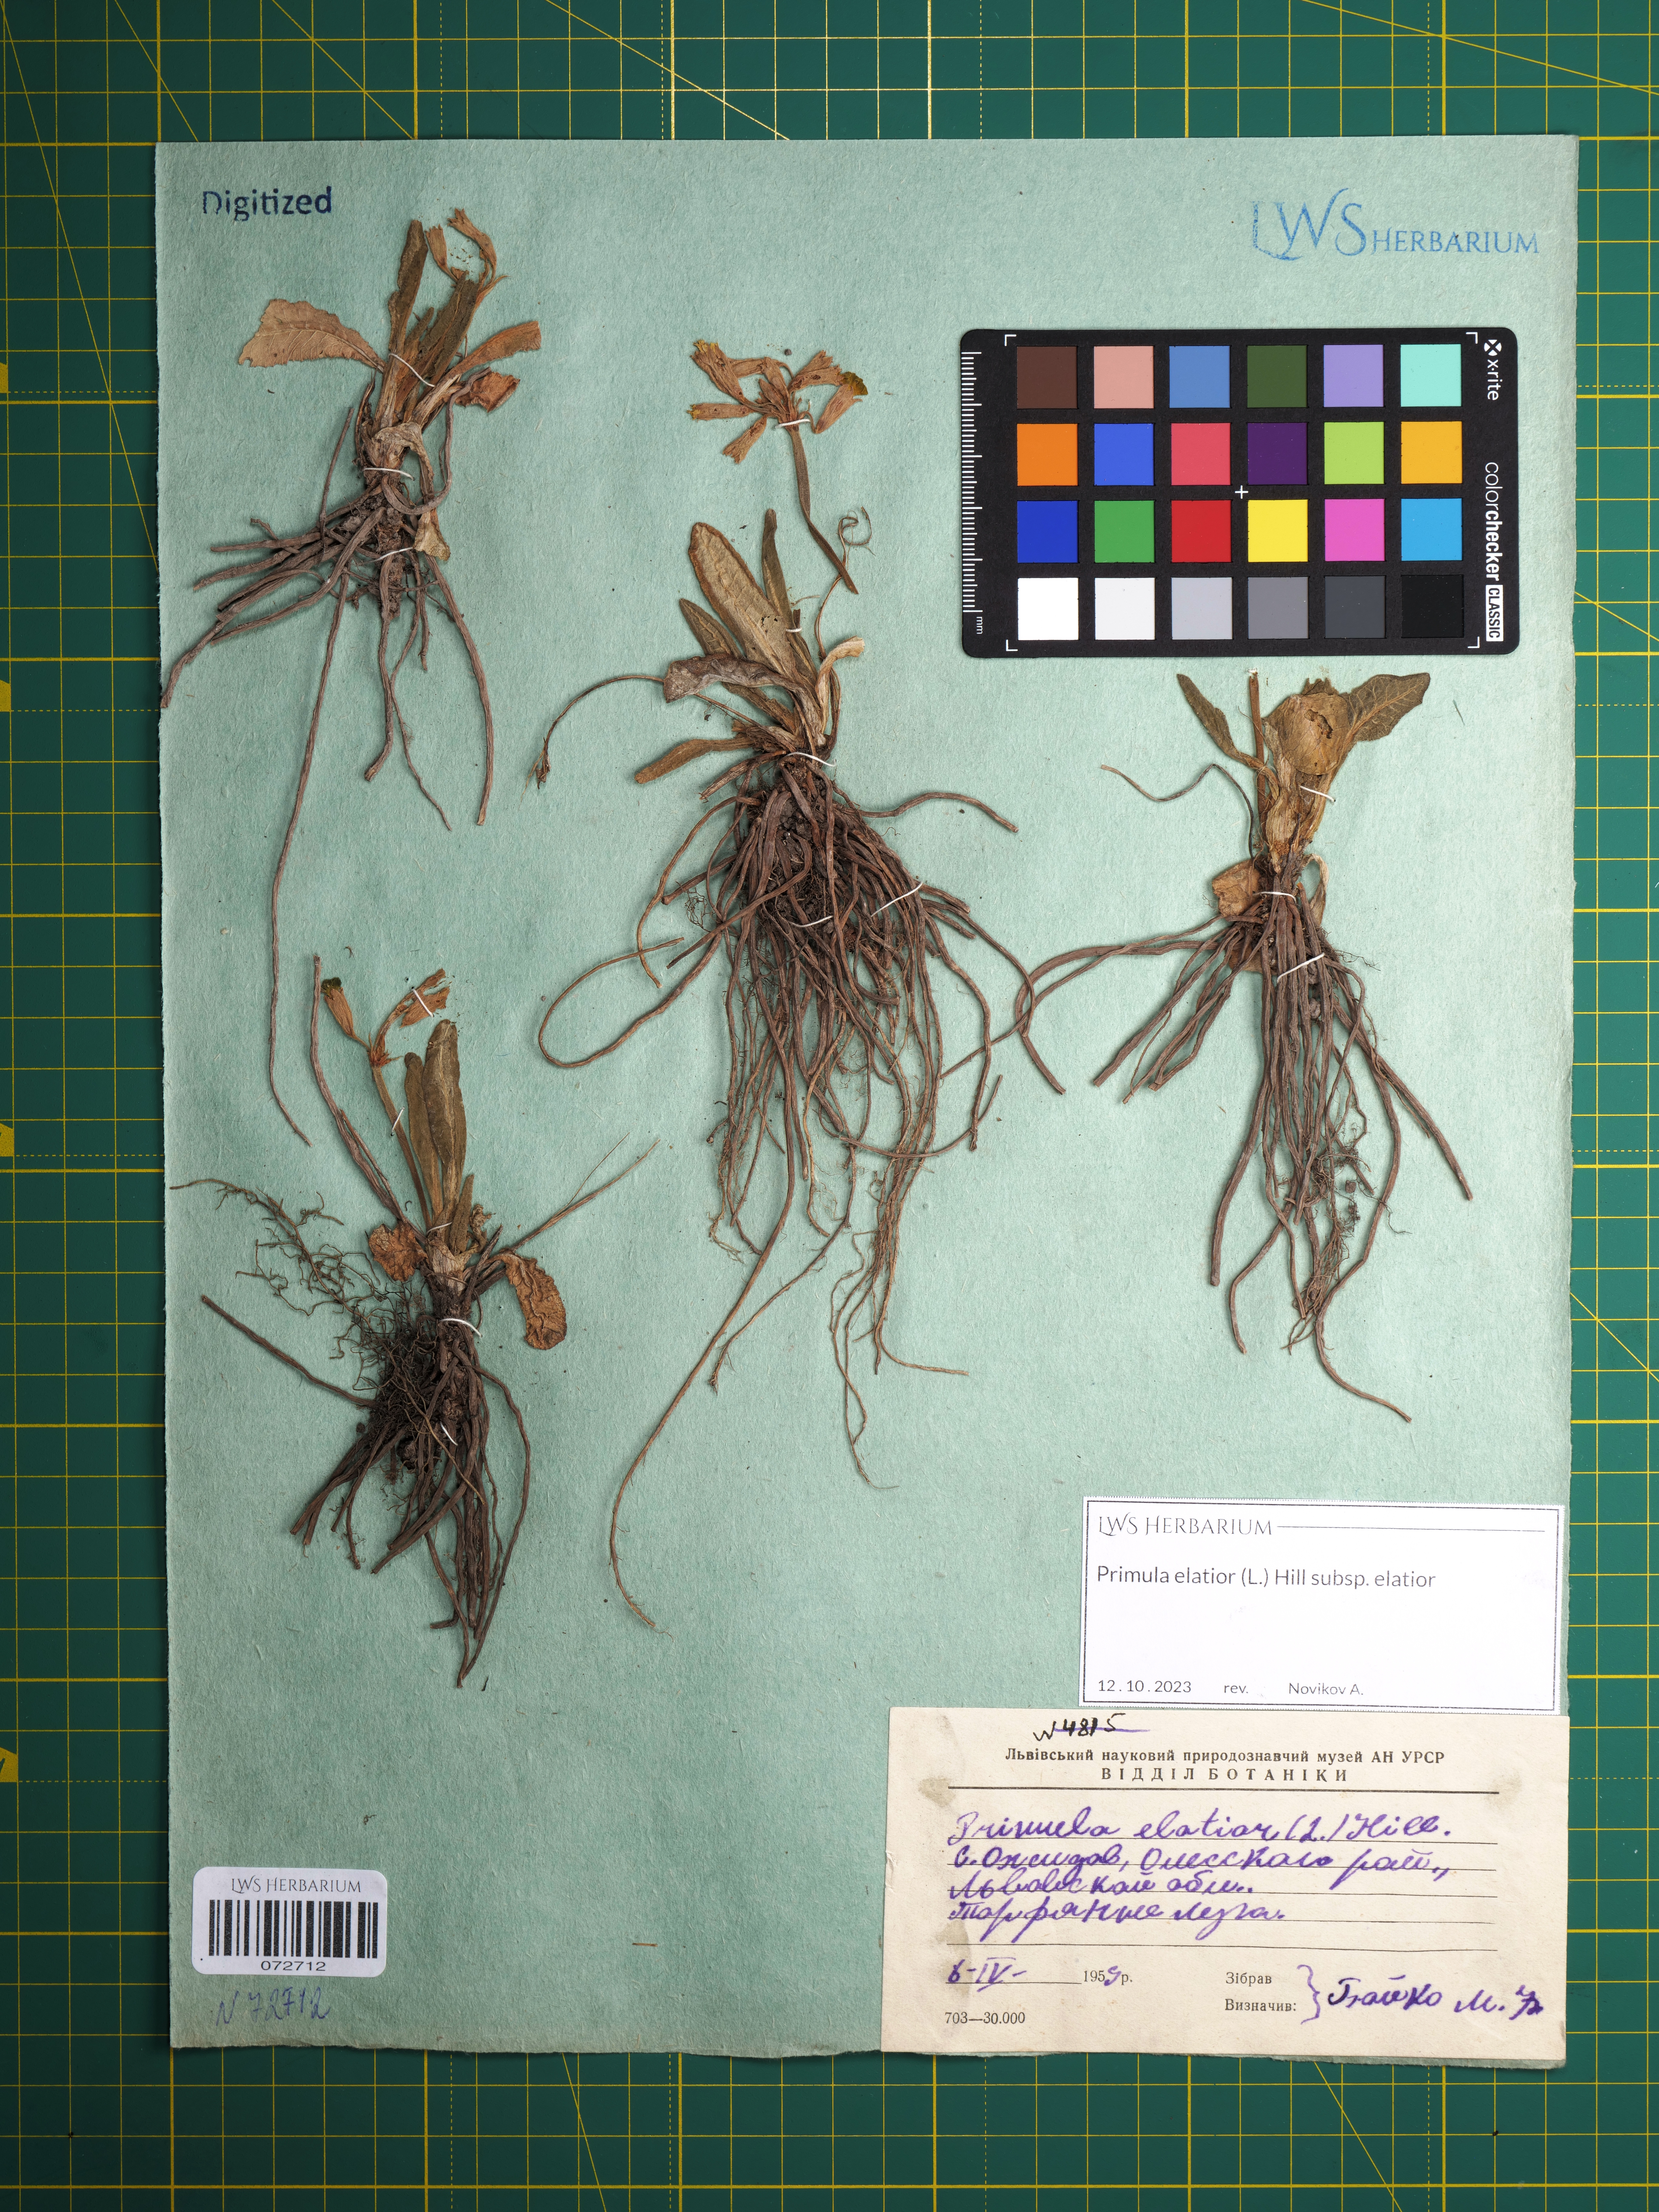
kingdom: Plantae
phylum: Tracheophyta
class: Magnoliopsida
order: Ericales
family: Primulaceae
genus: Primula
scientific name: Primula elatior
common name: Oxlip
